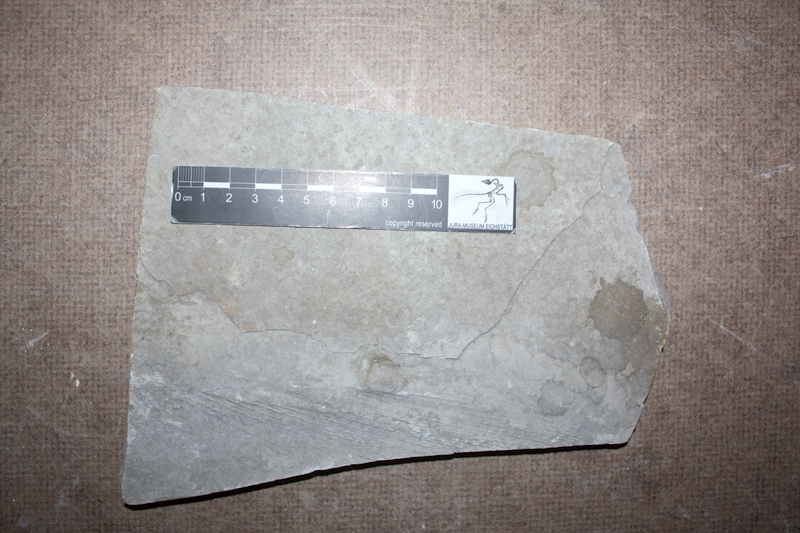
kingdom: Animalia
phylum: Chordata
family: Pachycormidae
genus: Asthenocormus
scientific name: Asthenocormus titanius
